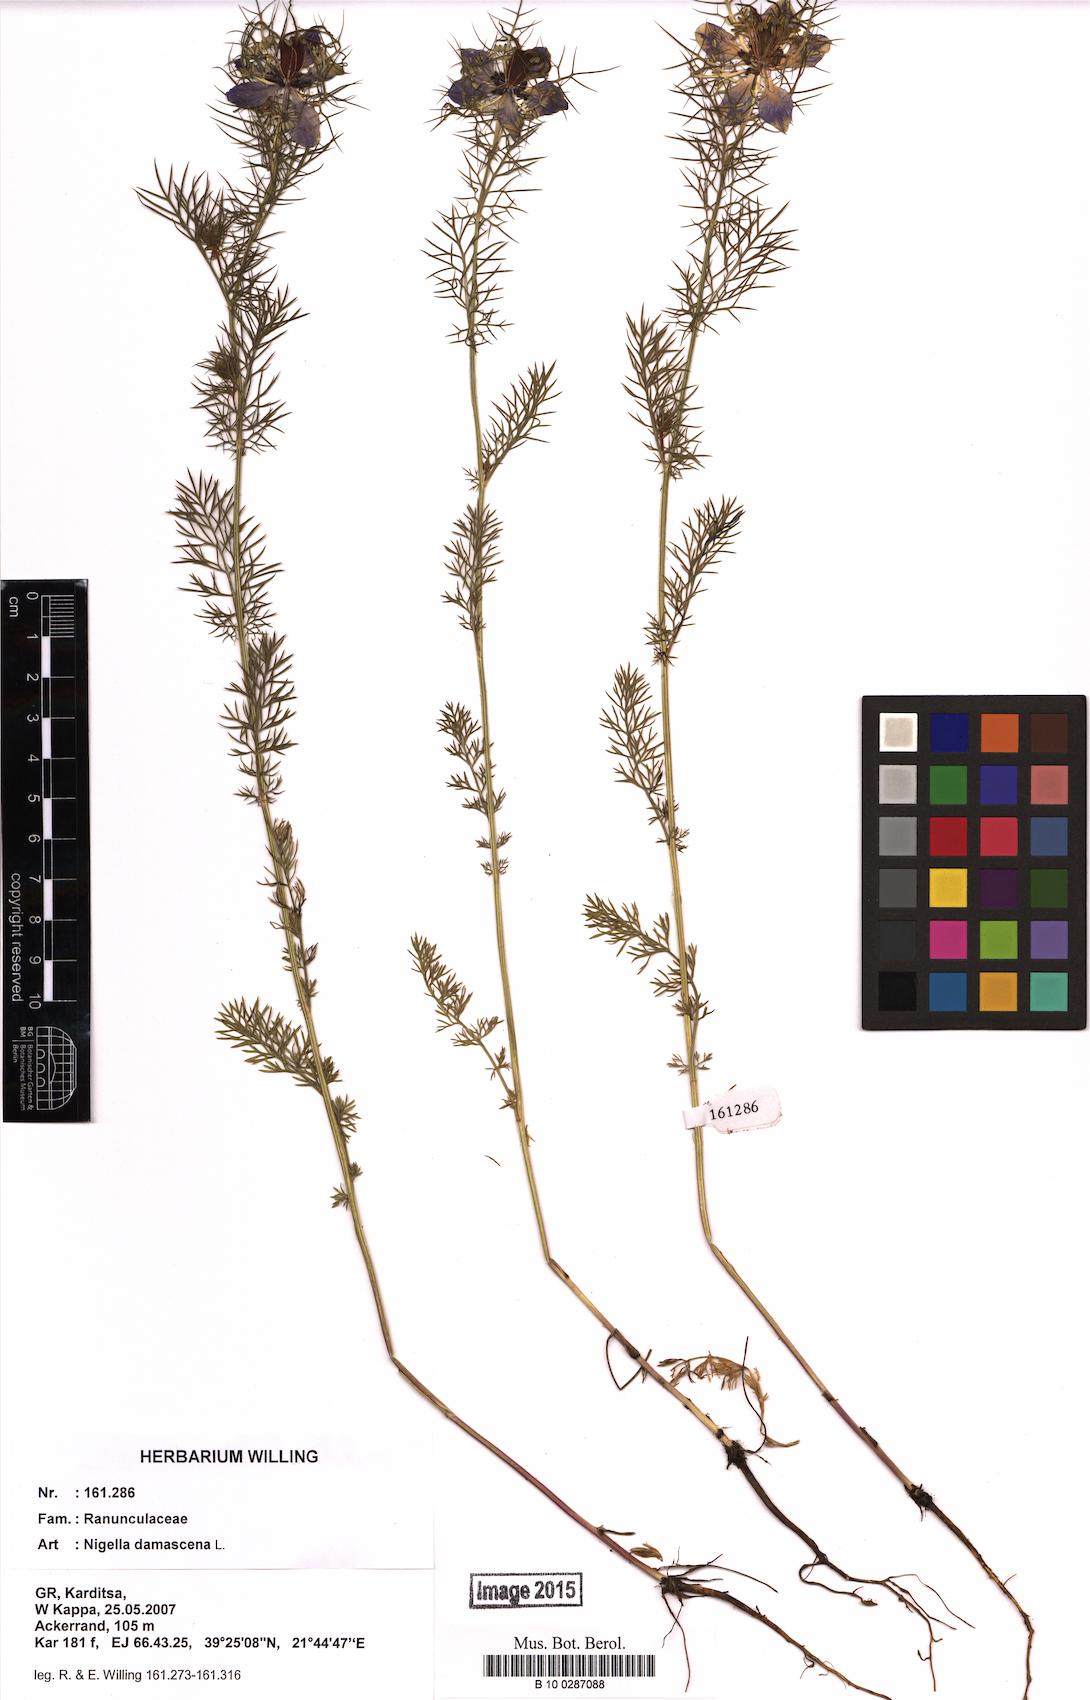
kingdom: Plantae
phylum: Tracheophyta
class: Magnoliopsida
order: Ranunculales
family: Ranunculaceae
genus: Nigella
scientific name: Nigella damascena
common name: Love-in-a-mist
